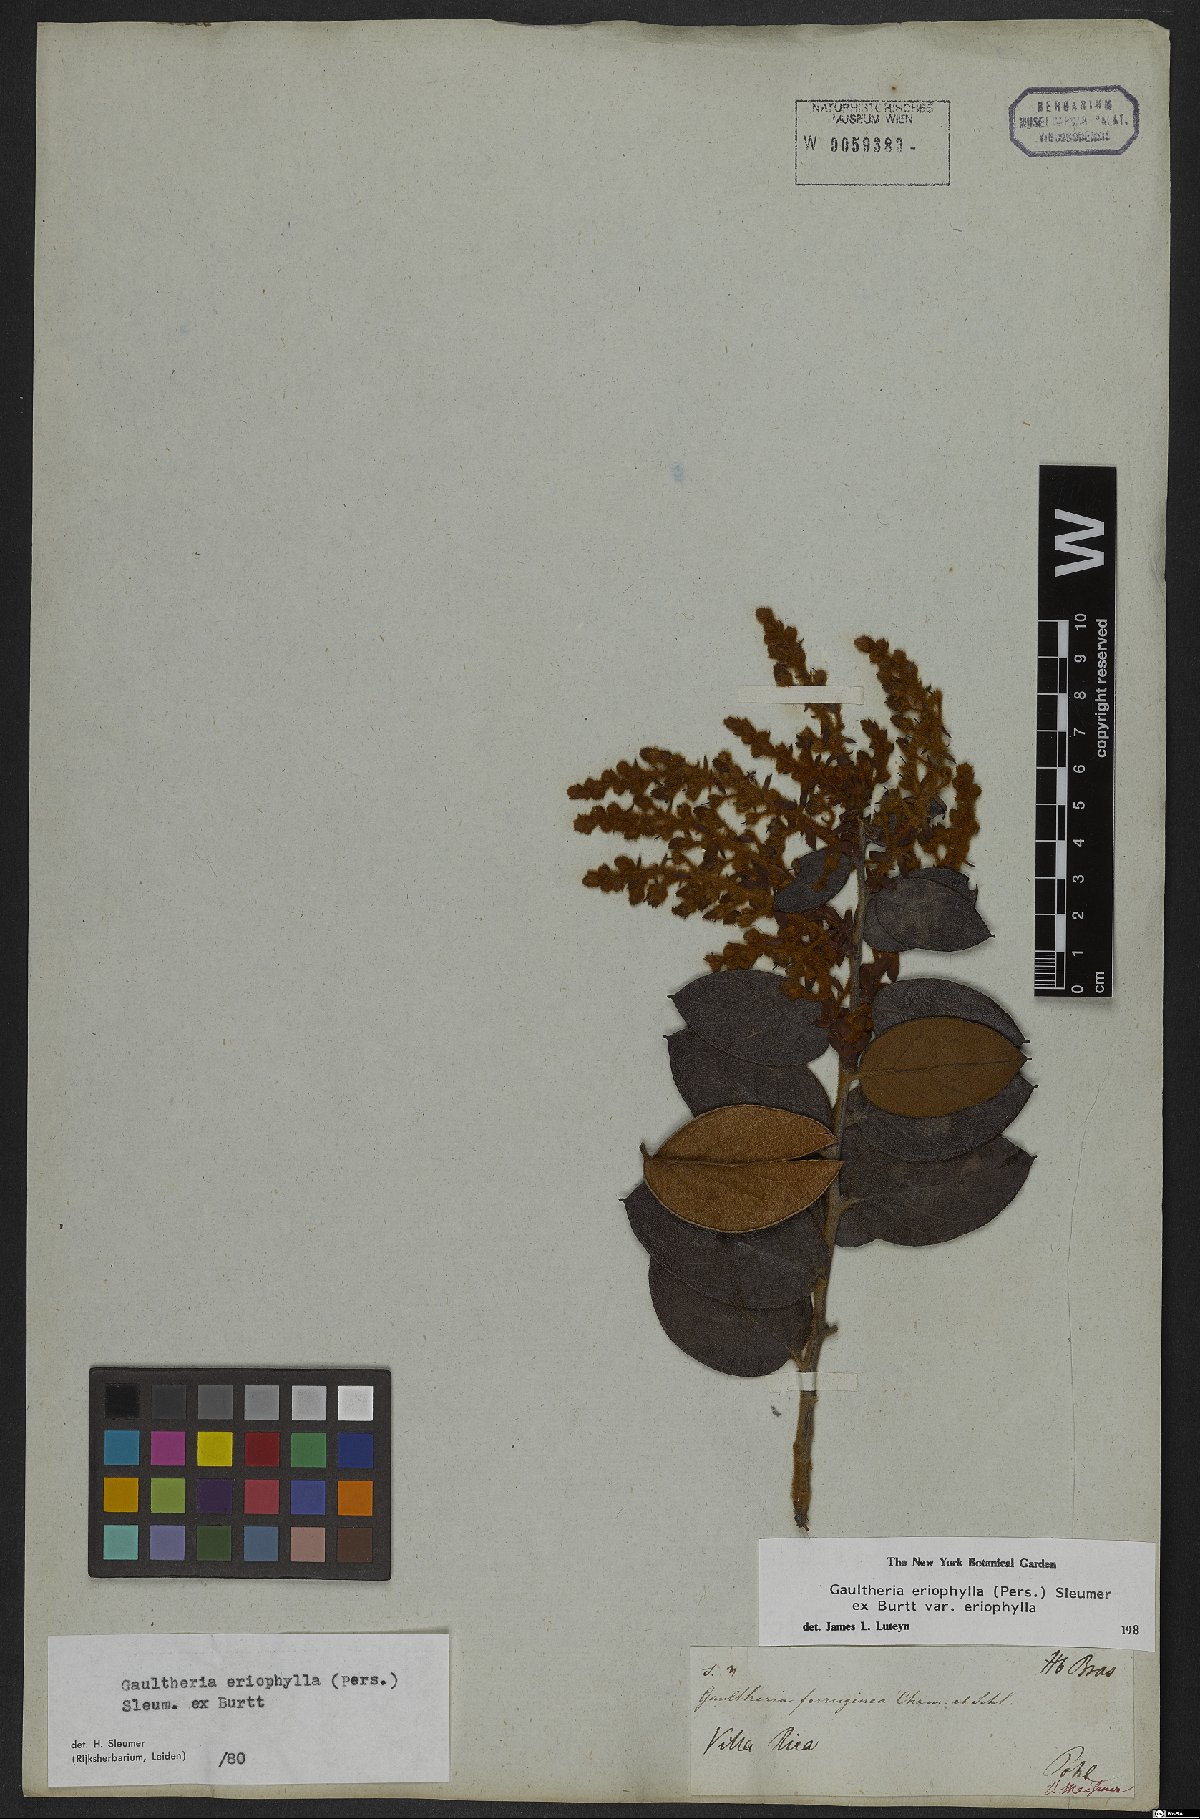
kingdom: Plantae
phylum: Tracheophyta
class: Magnoliopsida
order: Ericales
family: Ericaceae
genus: Gaultheria
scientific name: Gaultheria eriophylla
